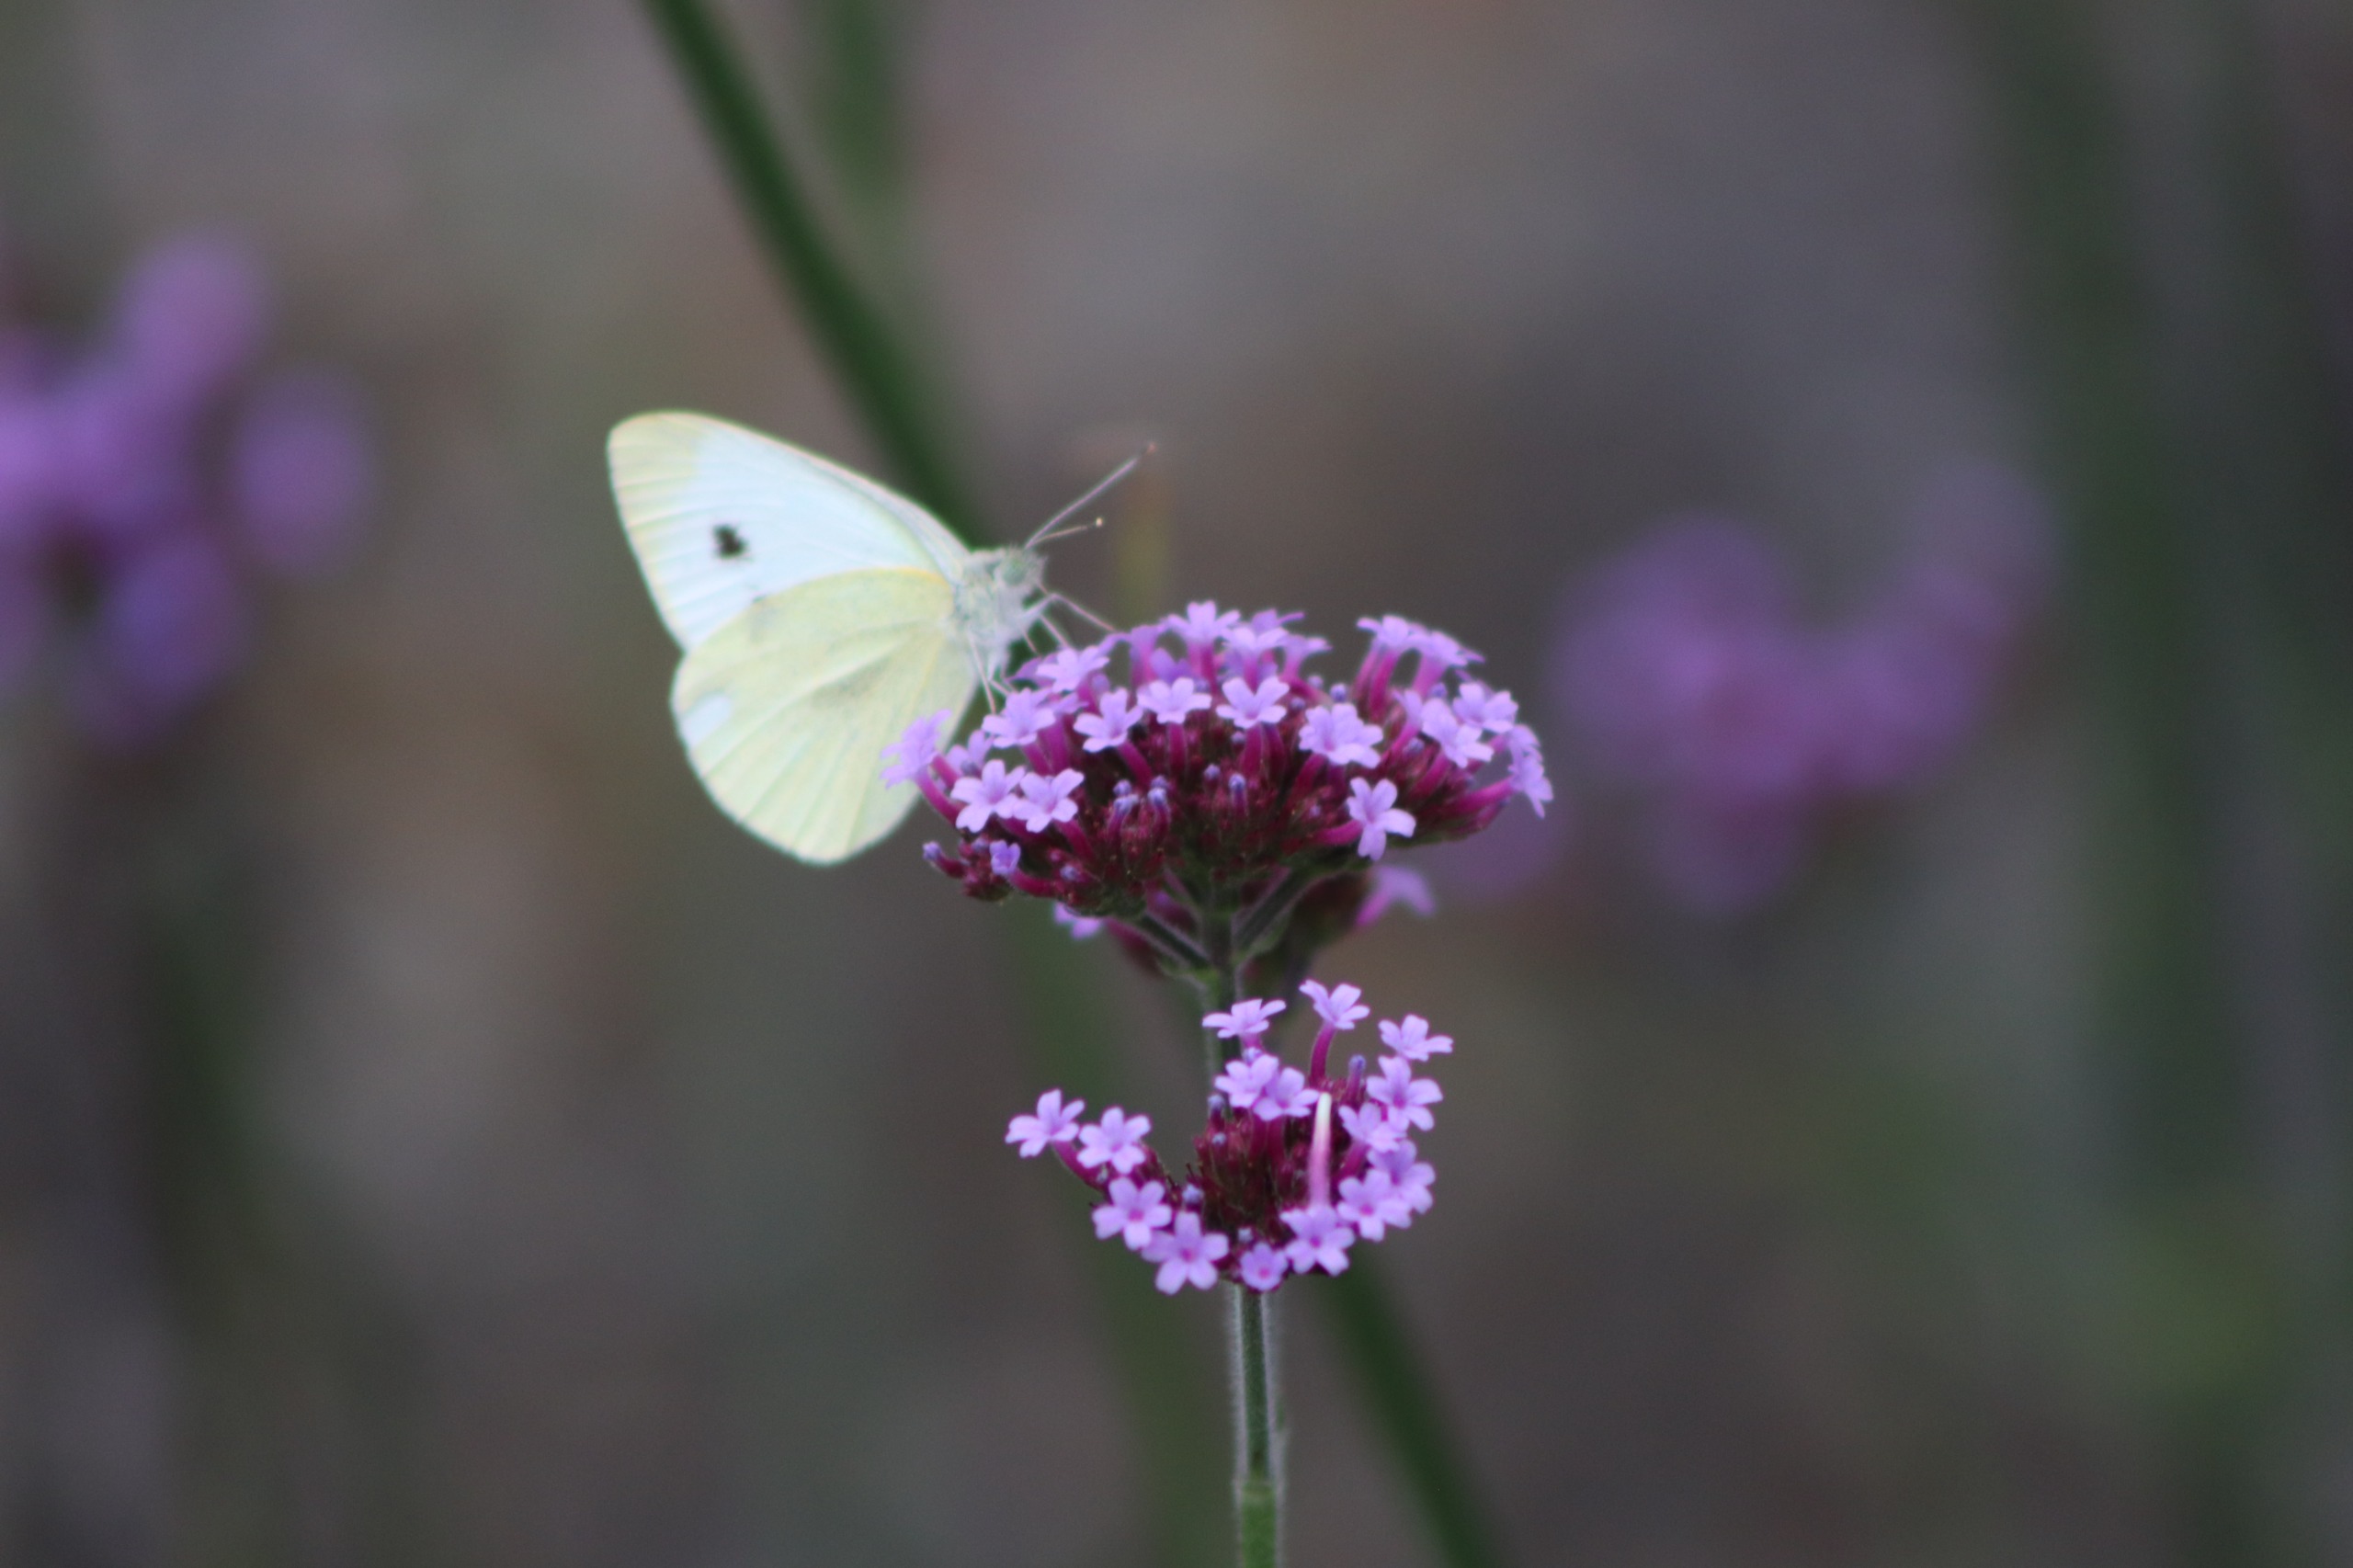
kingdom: Animalia
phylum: Arthropoda
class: Insecta
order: Lepidoptera
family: Pieridae
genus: Pieris
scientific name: Pieris rapae
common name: Lille kålsommerfugl
